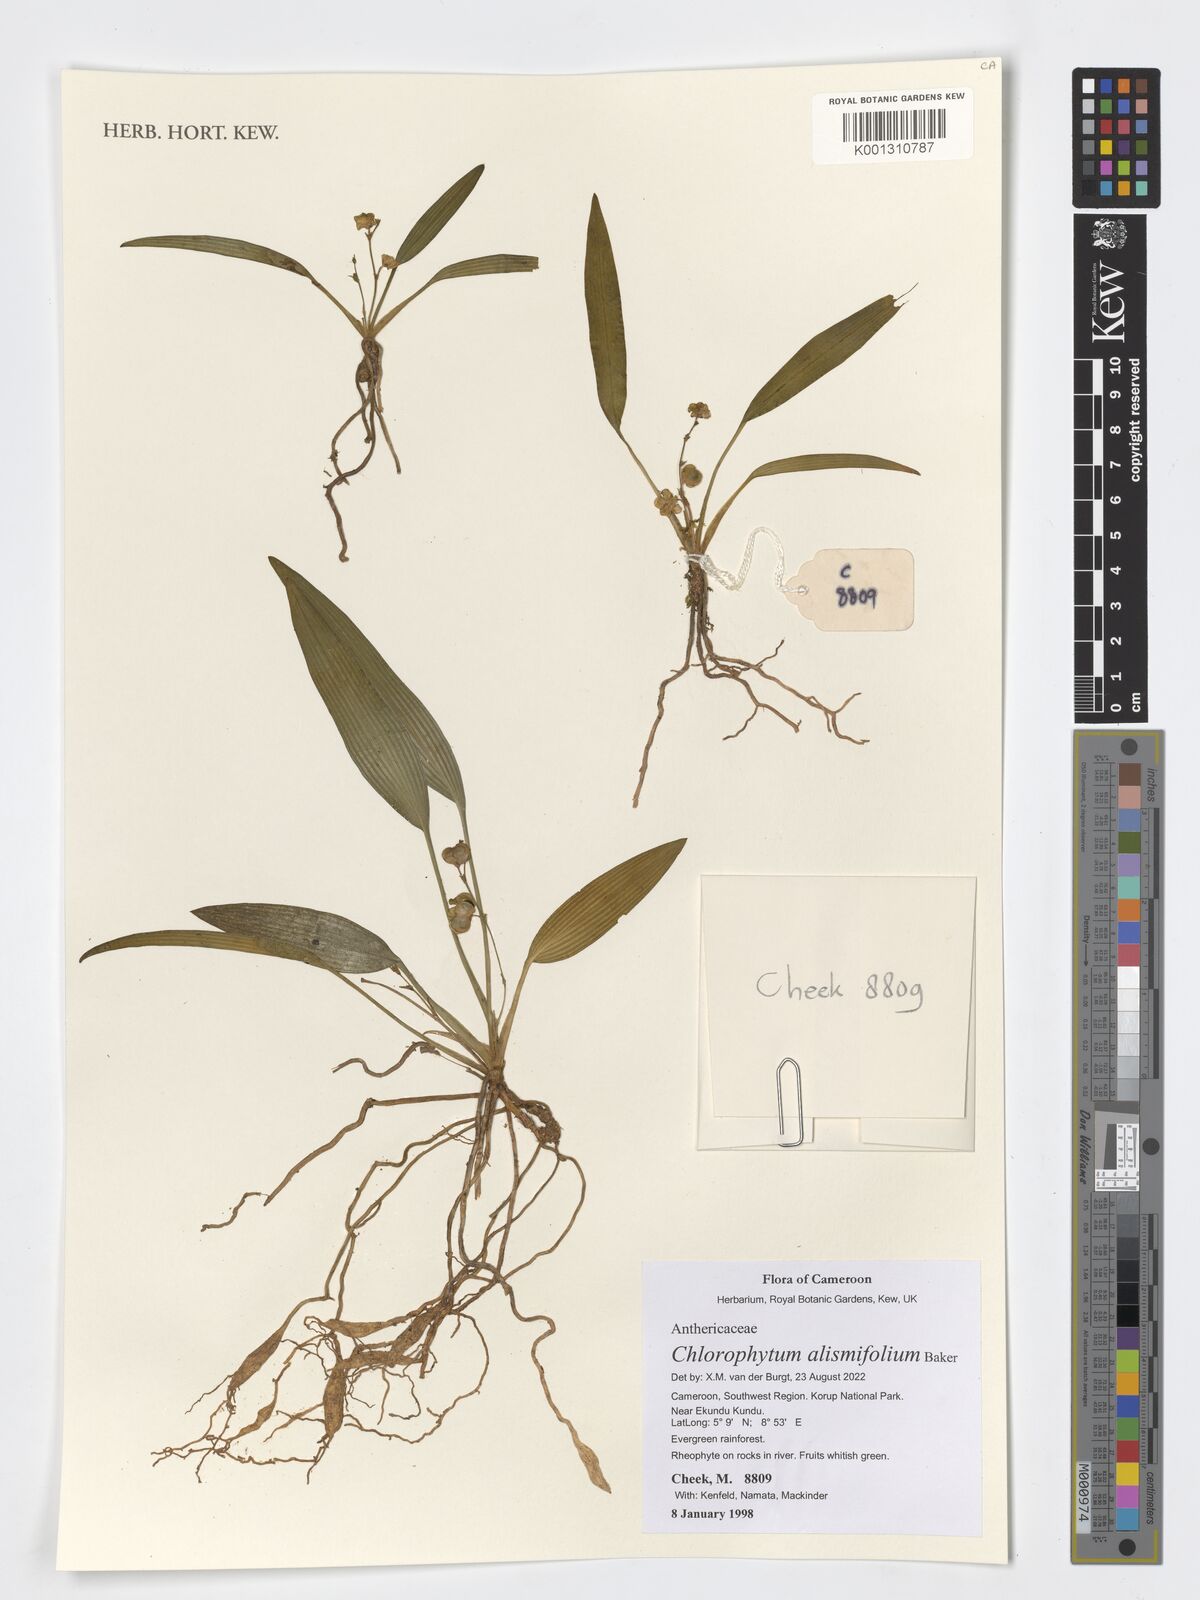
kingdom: Plantae
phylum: Tracheophyta
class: Liliopsida
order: Asparagales
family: Asparagaceae
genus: Chlorophytum
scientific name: Chlorophytum alismifolium
